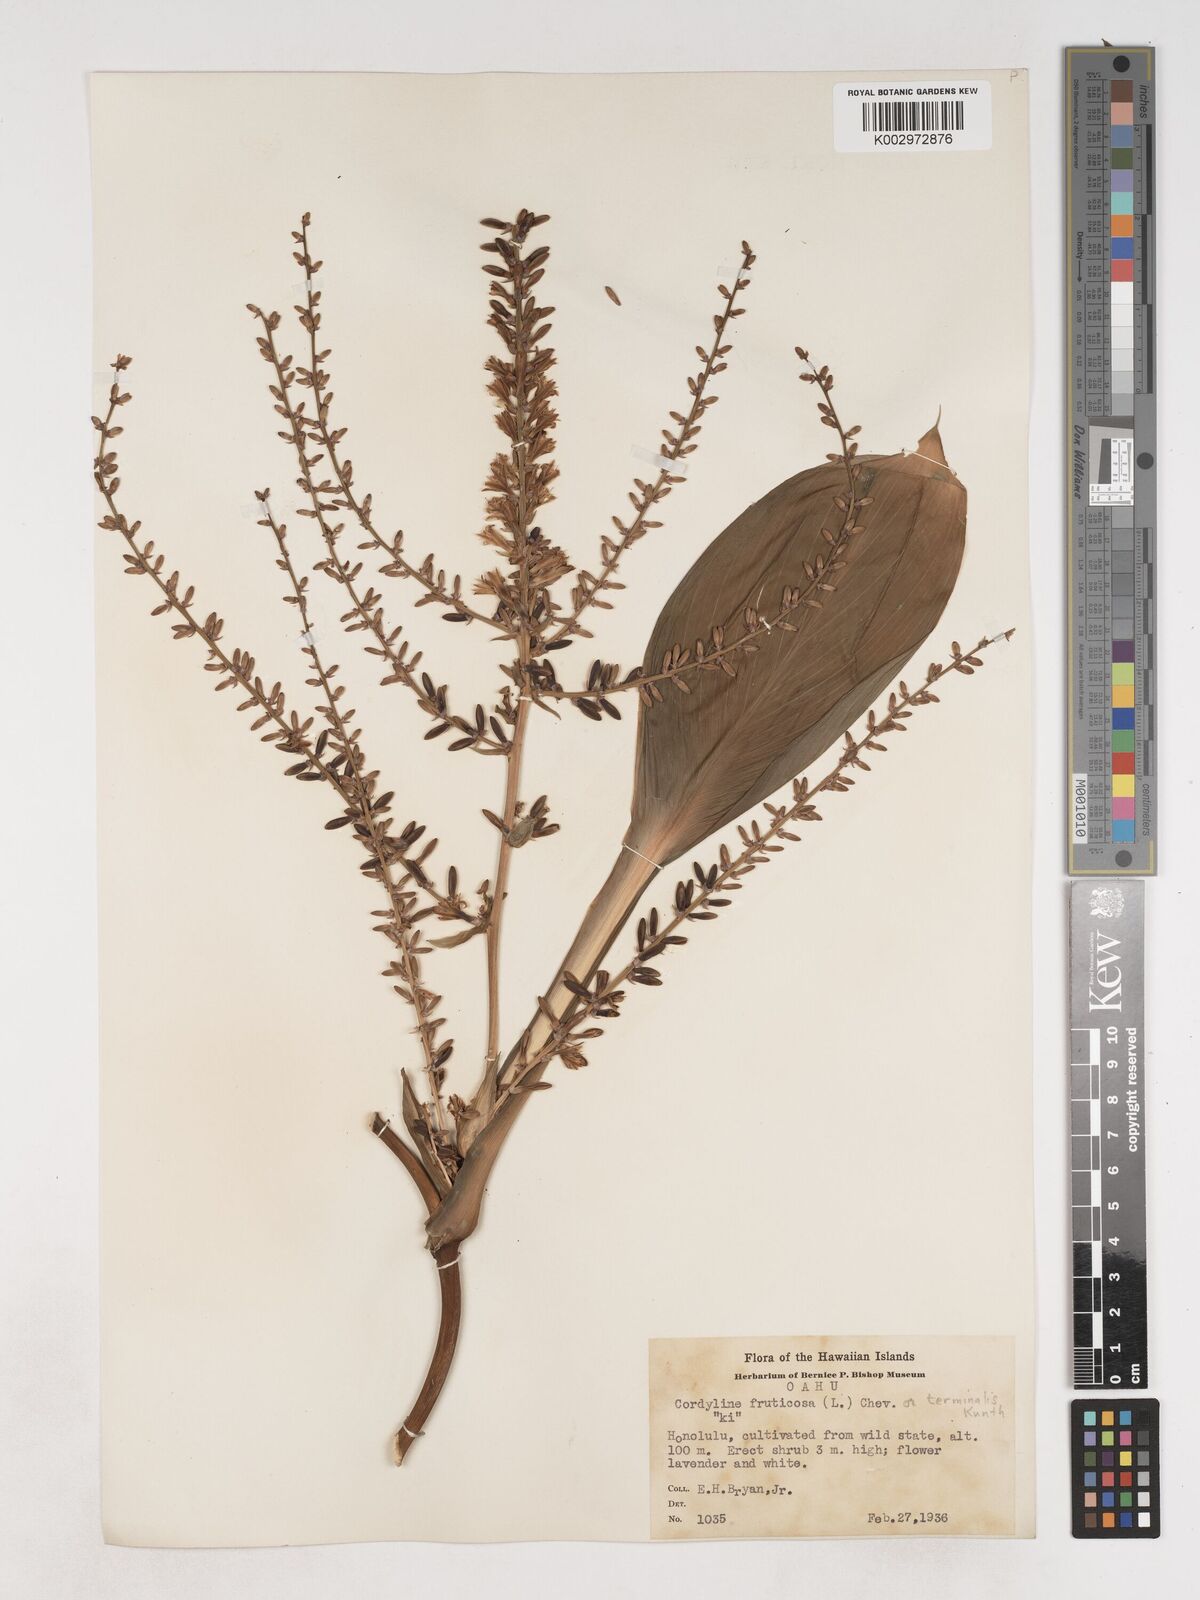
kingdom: Plantae
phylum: Tracheophyta
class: Liliopsida
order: Asparagales
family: Asparagaceae
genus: Cordyline
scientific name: Cordyline fruticosa
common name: Good-luck-plant
